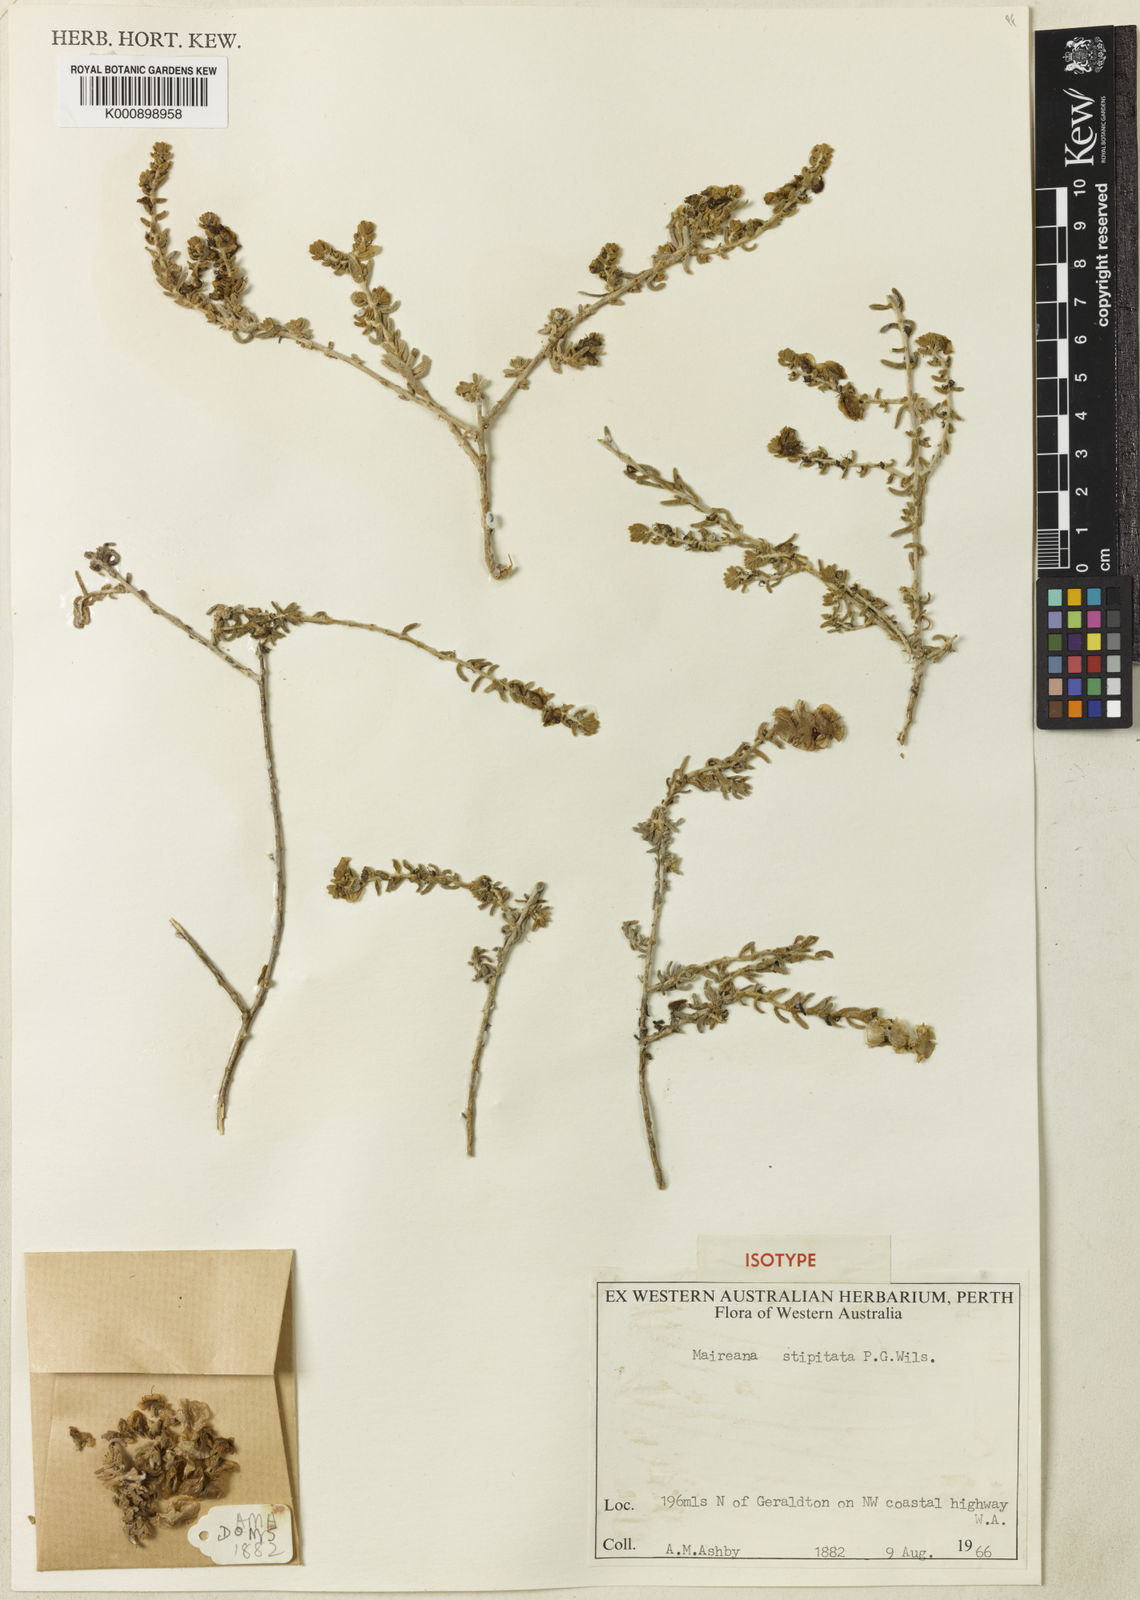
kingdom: Plantae
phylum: Tracheophyta
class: Magnoliopsida
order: Caryophyllales
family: Amaranthaceae
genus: Maireana
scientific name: Maireana stipitata
